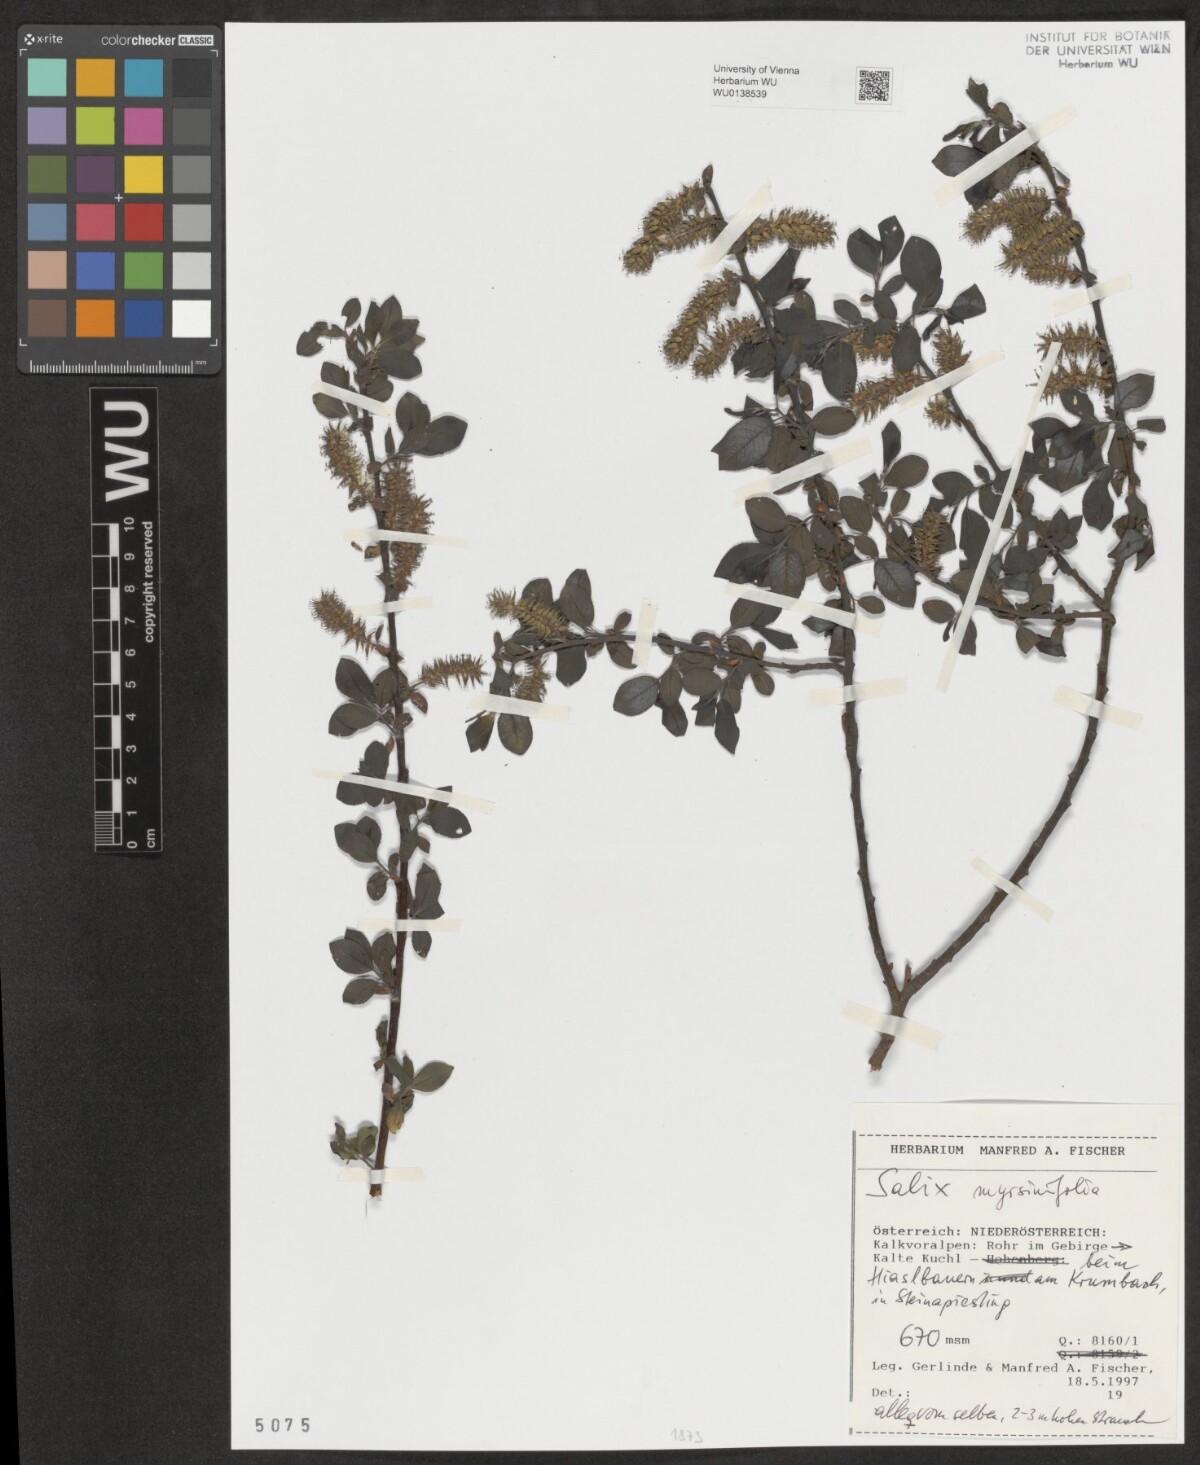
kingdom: Plantae
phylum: Tracheophyta
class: Magnoliopsida
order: Malpighiales
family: Salicaceae
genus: Salix
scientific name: Salix myrsinifolia
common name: Dark-leaved willow
